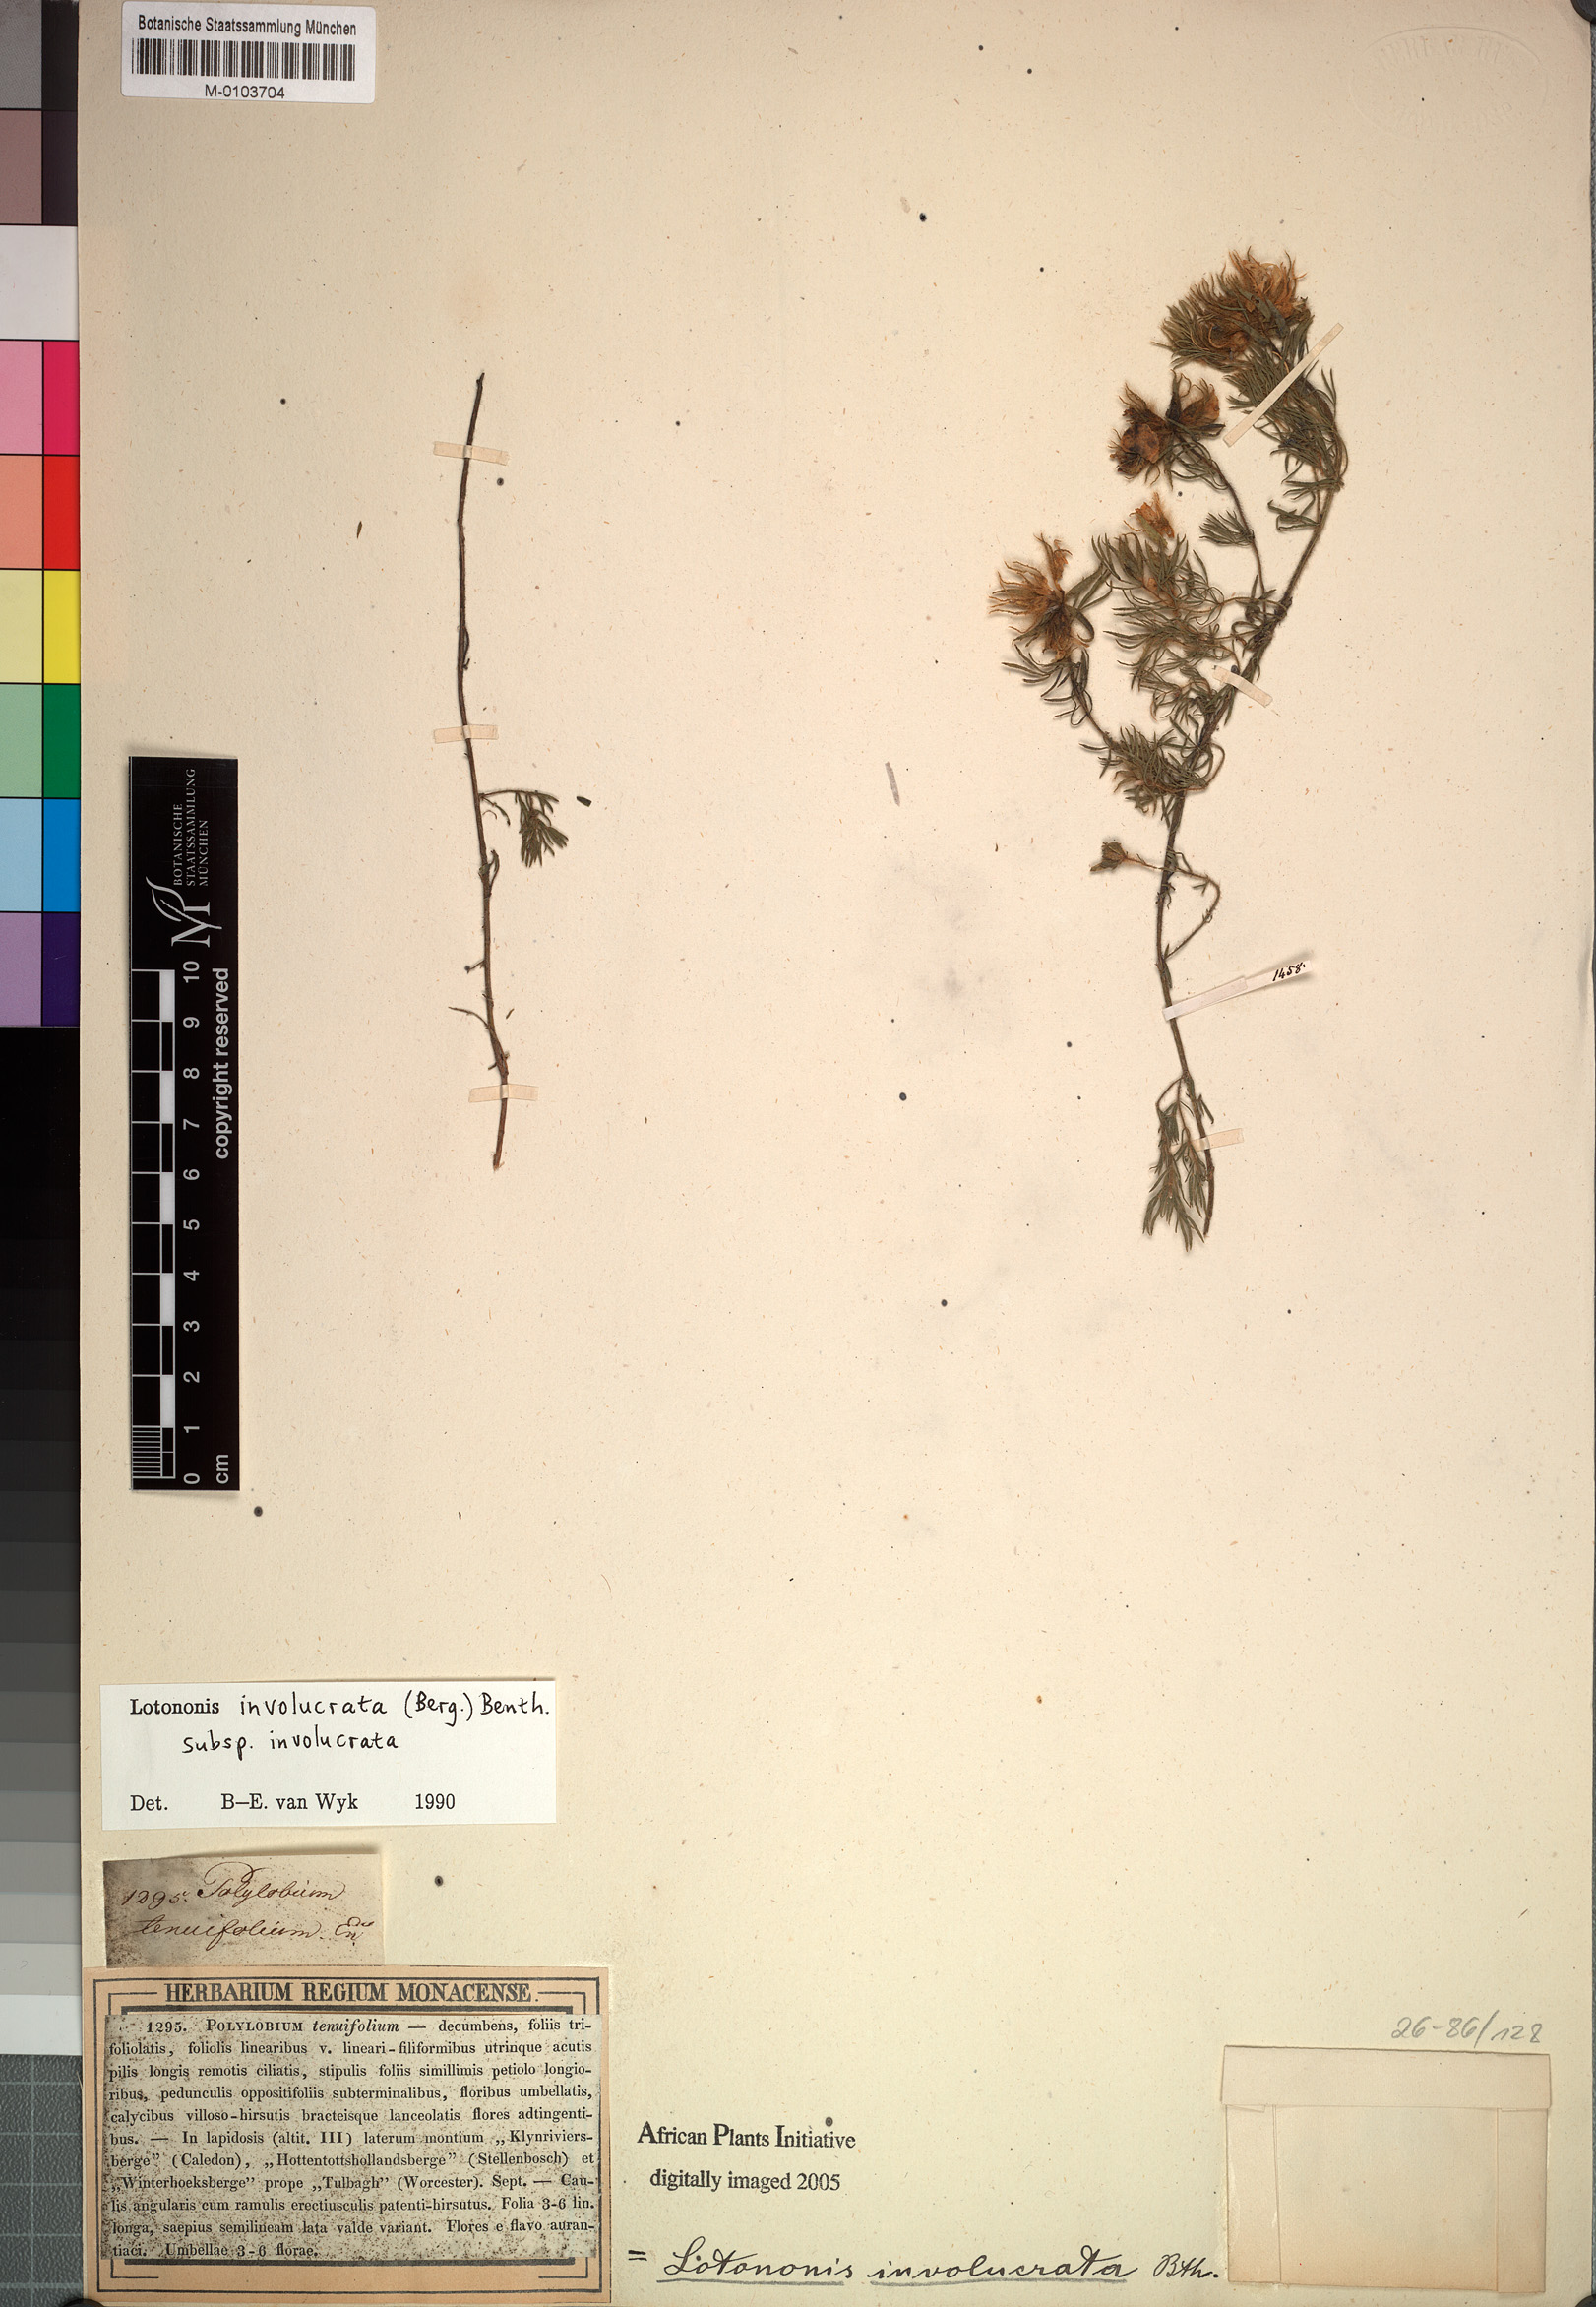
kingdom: Plantae
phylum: Tracheophyta
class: Magnoliopsida
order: Fabales
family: Fabaceae
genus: Lotononis
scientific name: Lotononis involucrata
